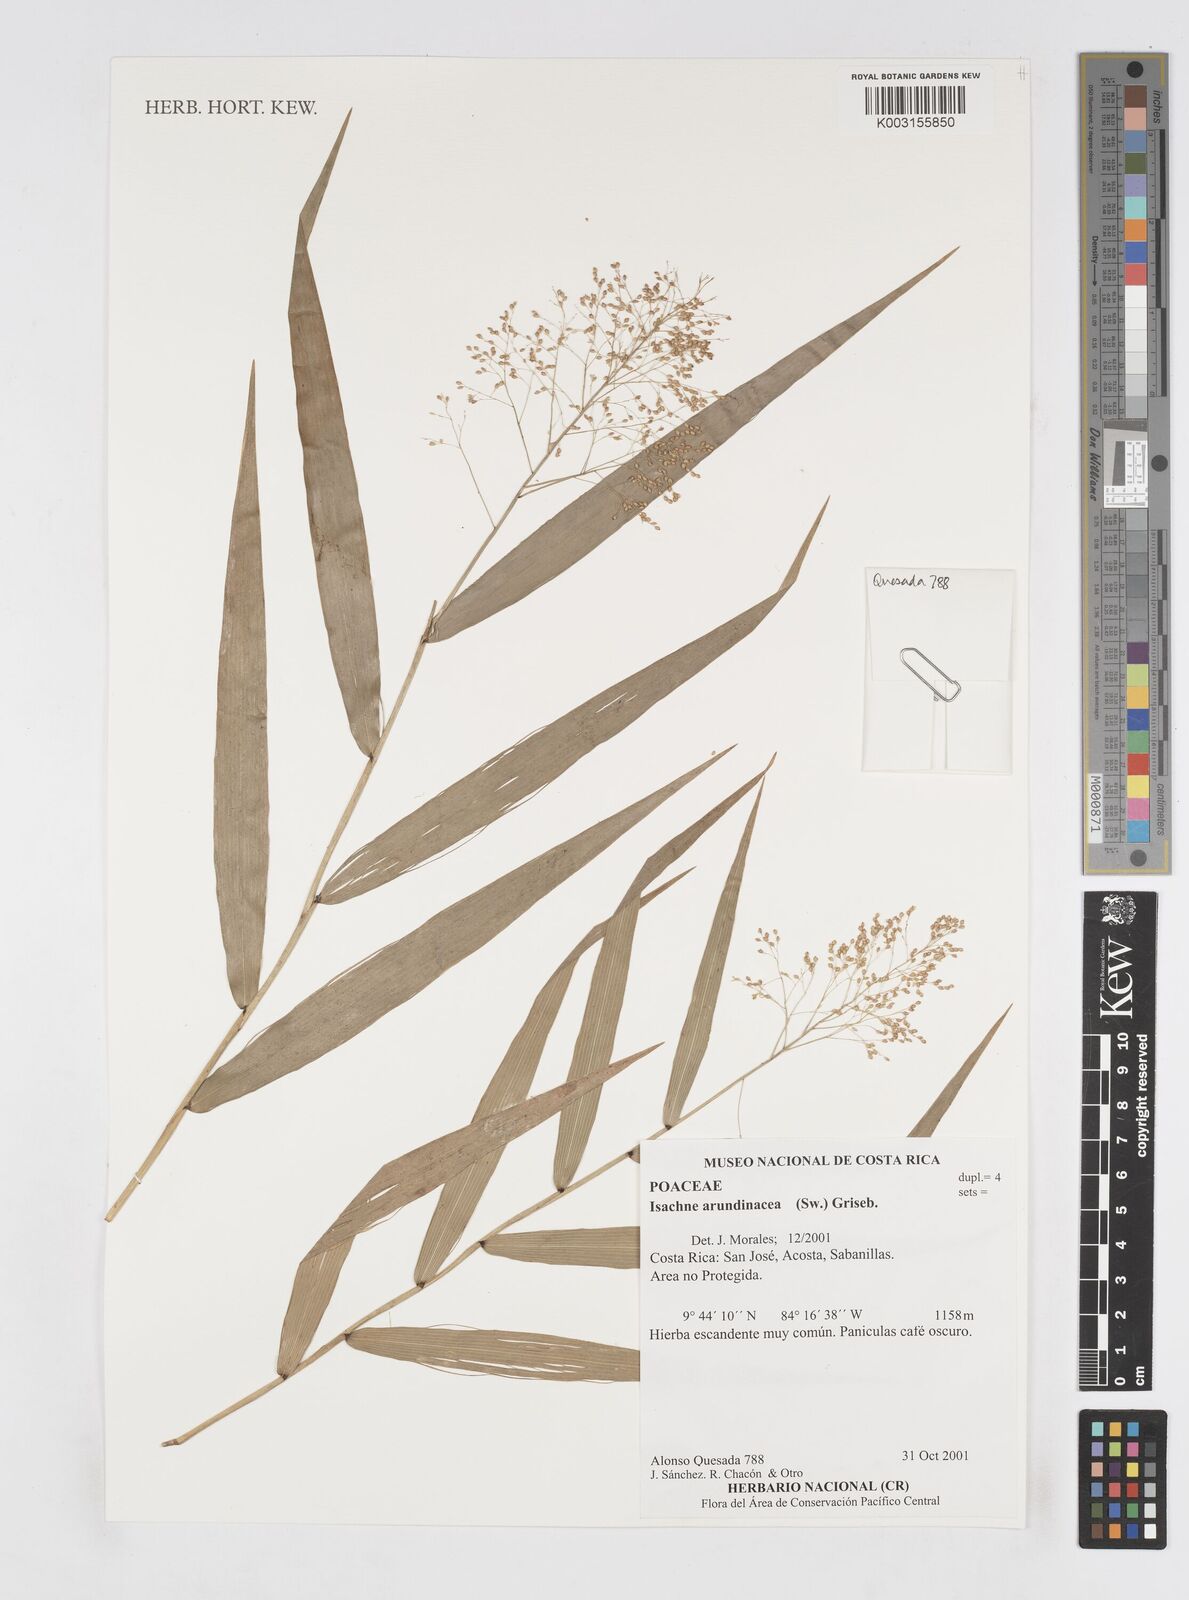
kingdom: Plantae
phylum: Tracheophyta
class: Liliopsida
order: Poales
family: Poaceae
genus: Isachne
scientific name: Isachne arundinacea
